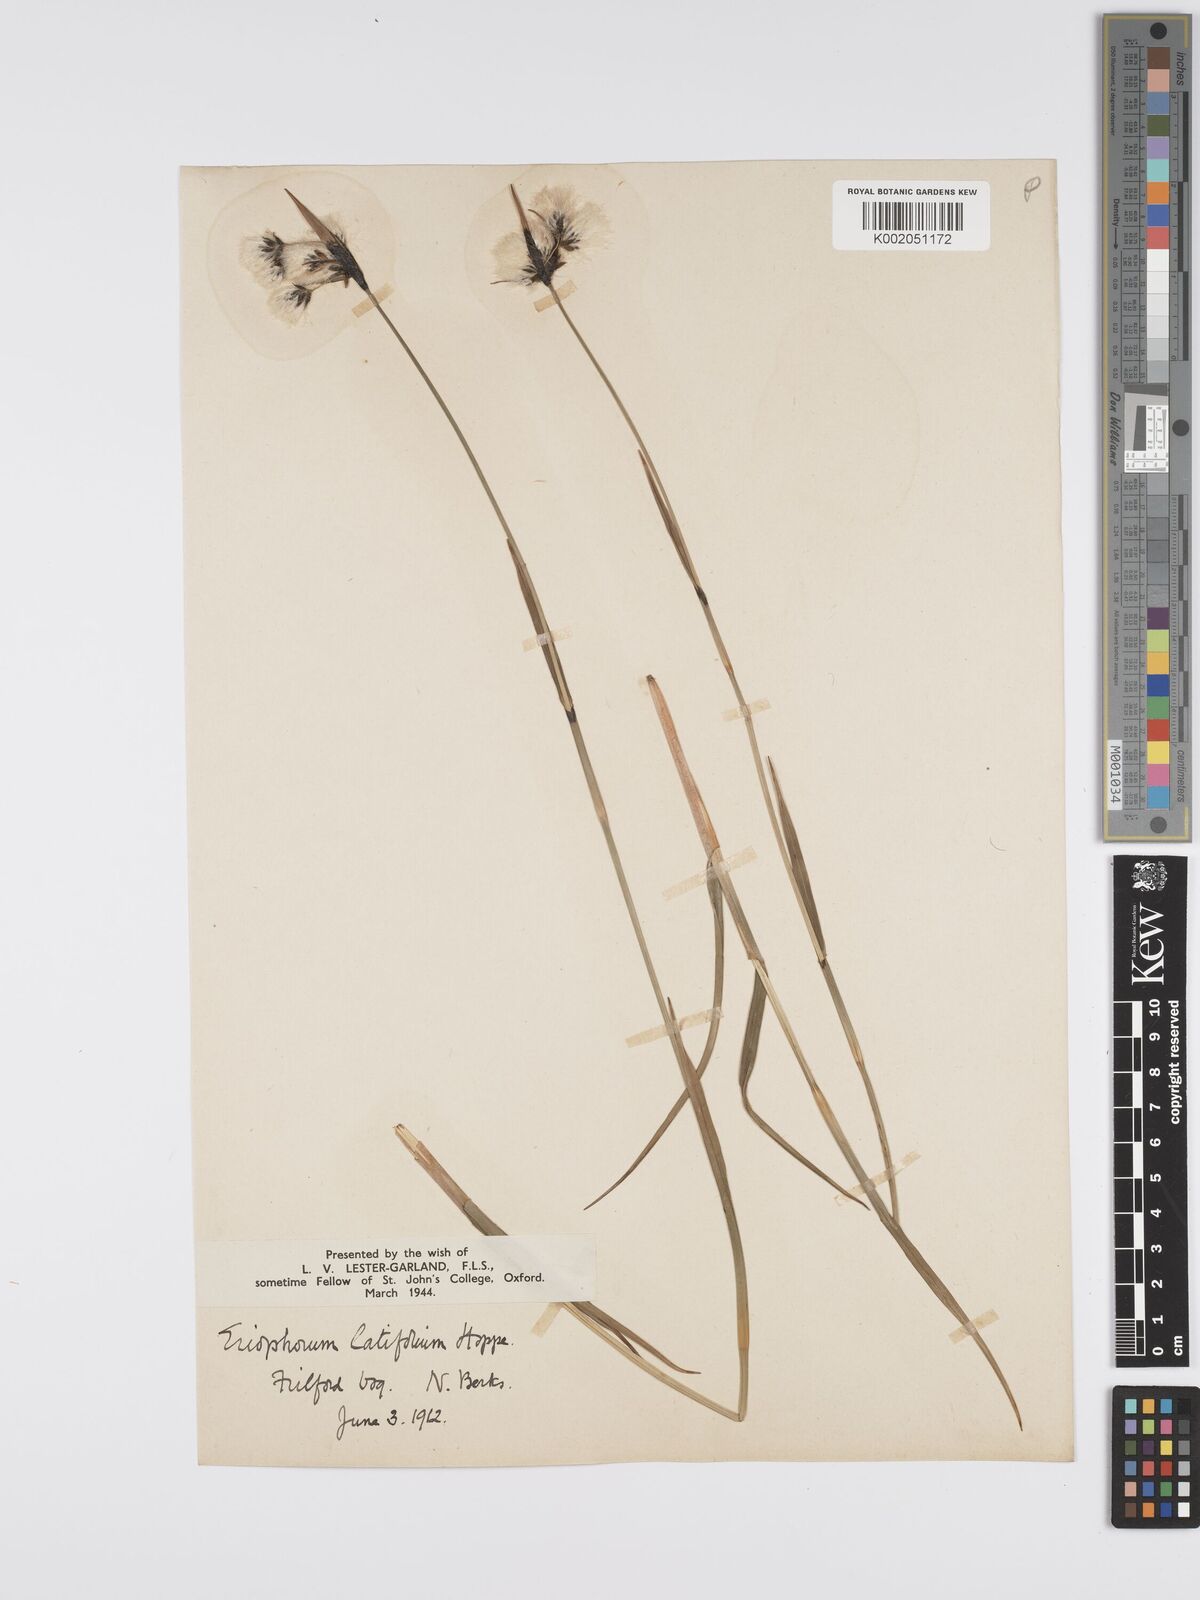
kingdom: Plantae
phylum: Tracheophyta
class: Liliopsida
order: Poales
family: Cyperaceae
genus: Eriophorum
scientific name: Eriophorum latifolium
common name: Broad-leaved cottongrass
